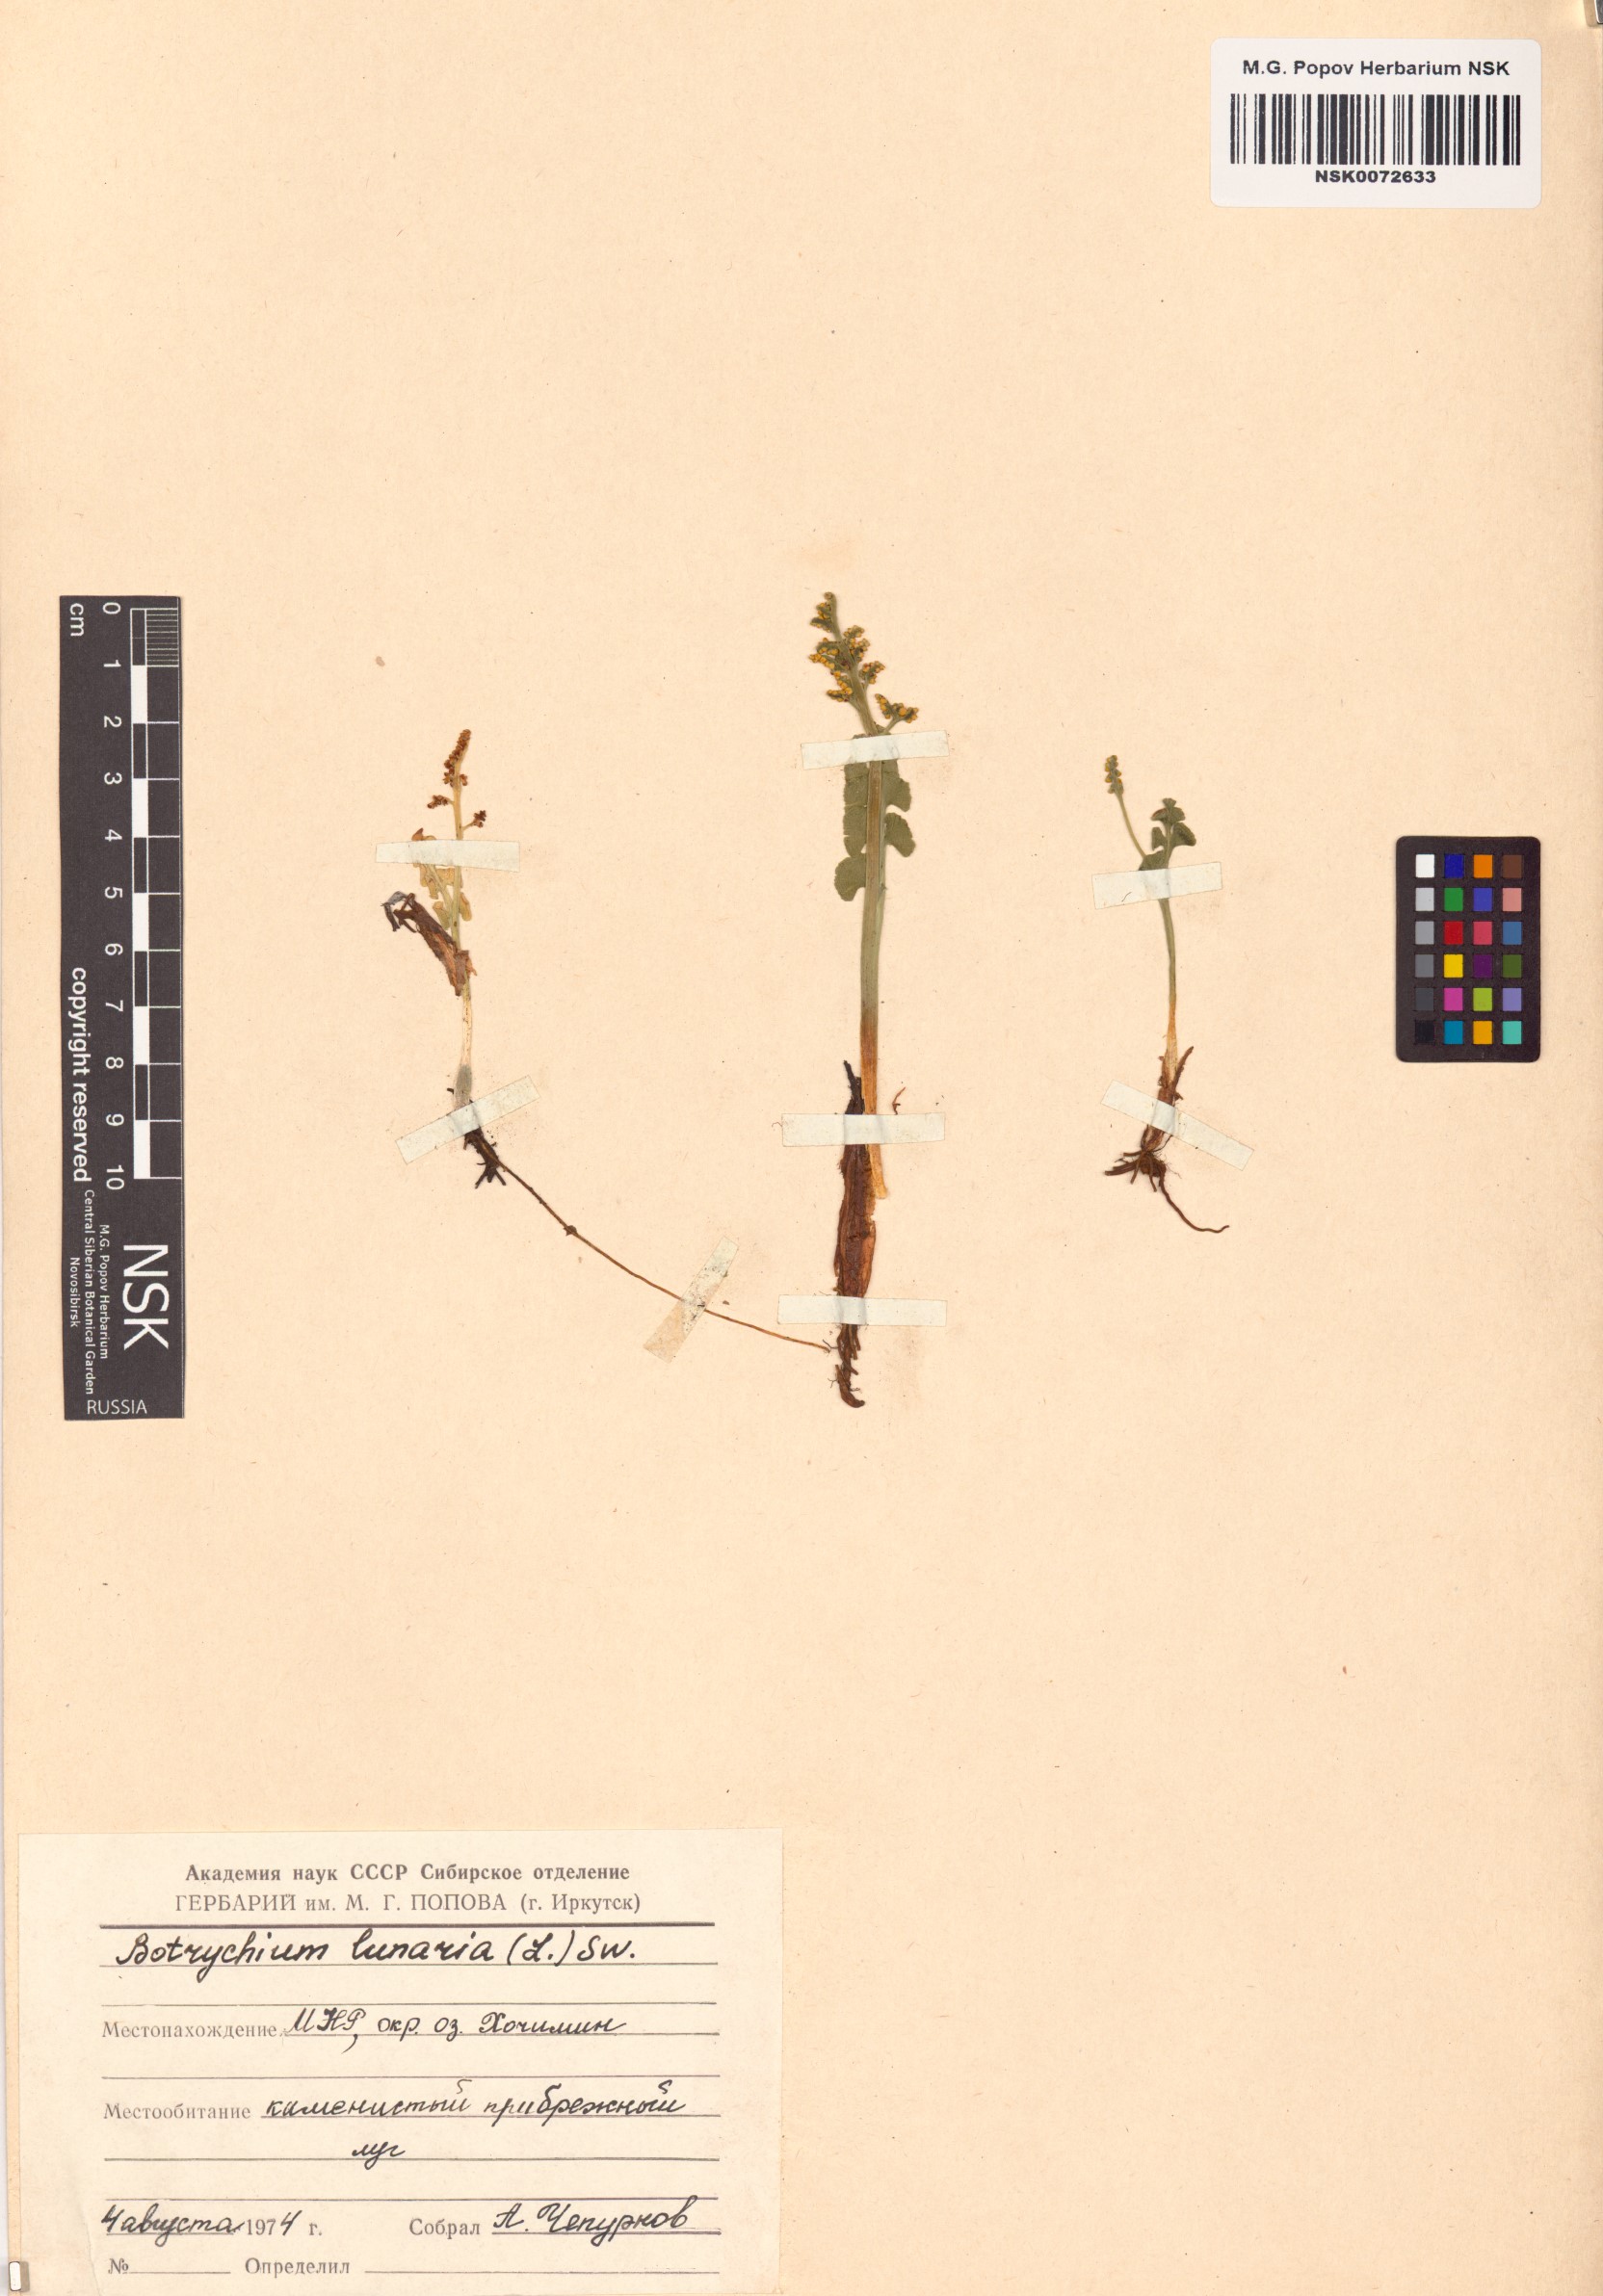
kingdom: Plantae
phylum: Tracheophyta
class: Polypodiopsida
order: Ophioglossales
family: Ophioglossaceae
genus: Botrychium
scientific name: Botrychium lunaria
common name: Moonwort
